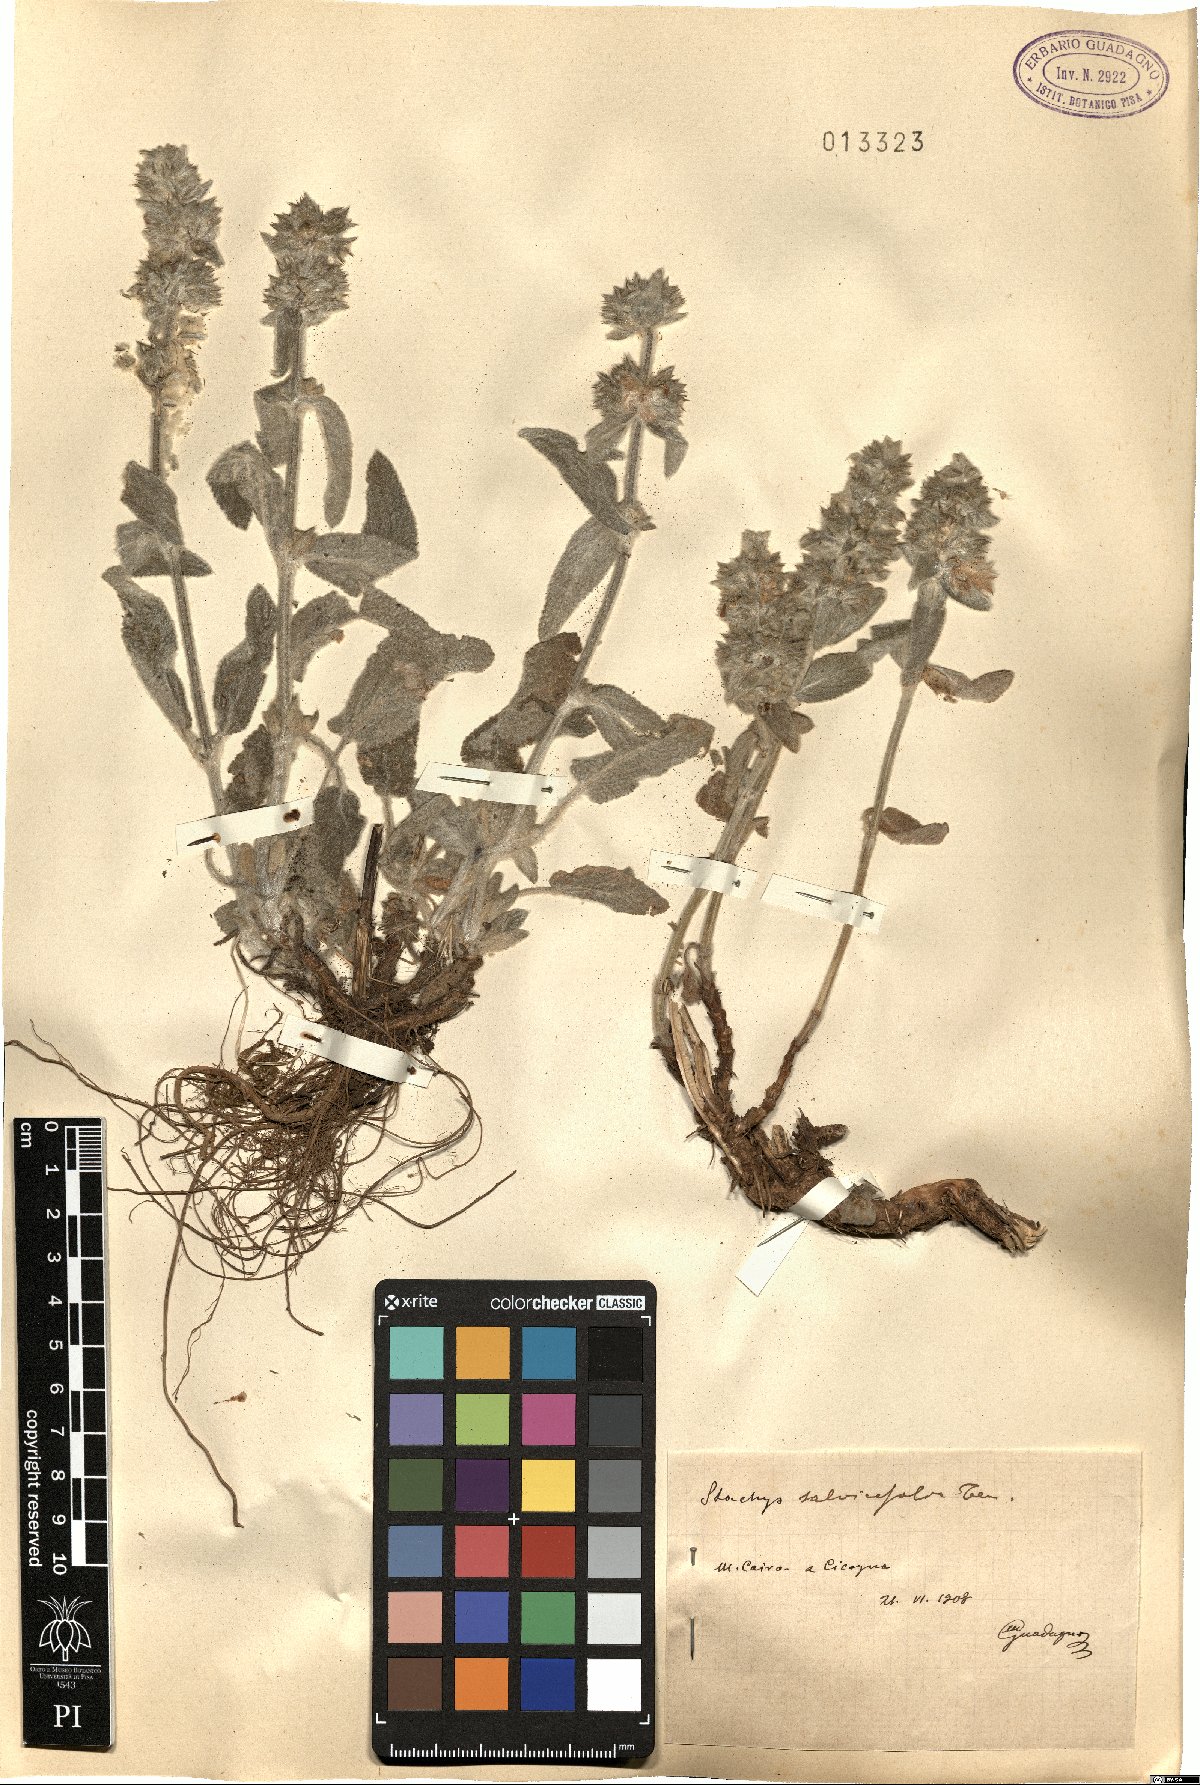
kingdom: Plantae
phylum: Tracheophyta
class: Magnoliopsida
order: Lamiales
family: Lamiaceae
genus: Stachys
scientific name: Stachys cretica
